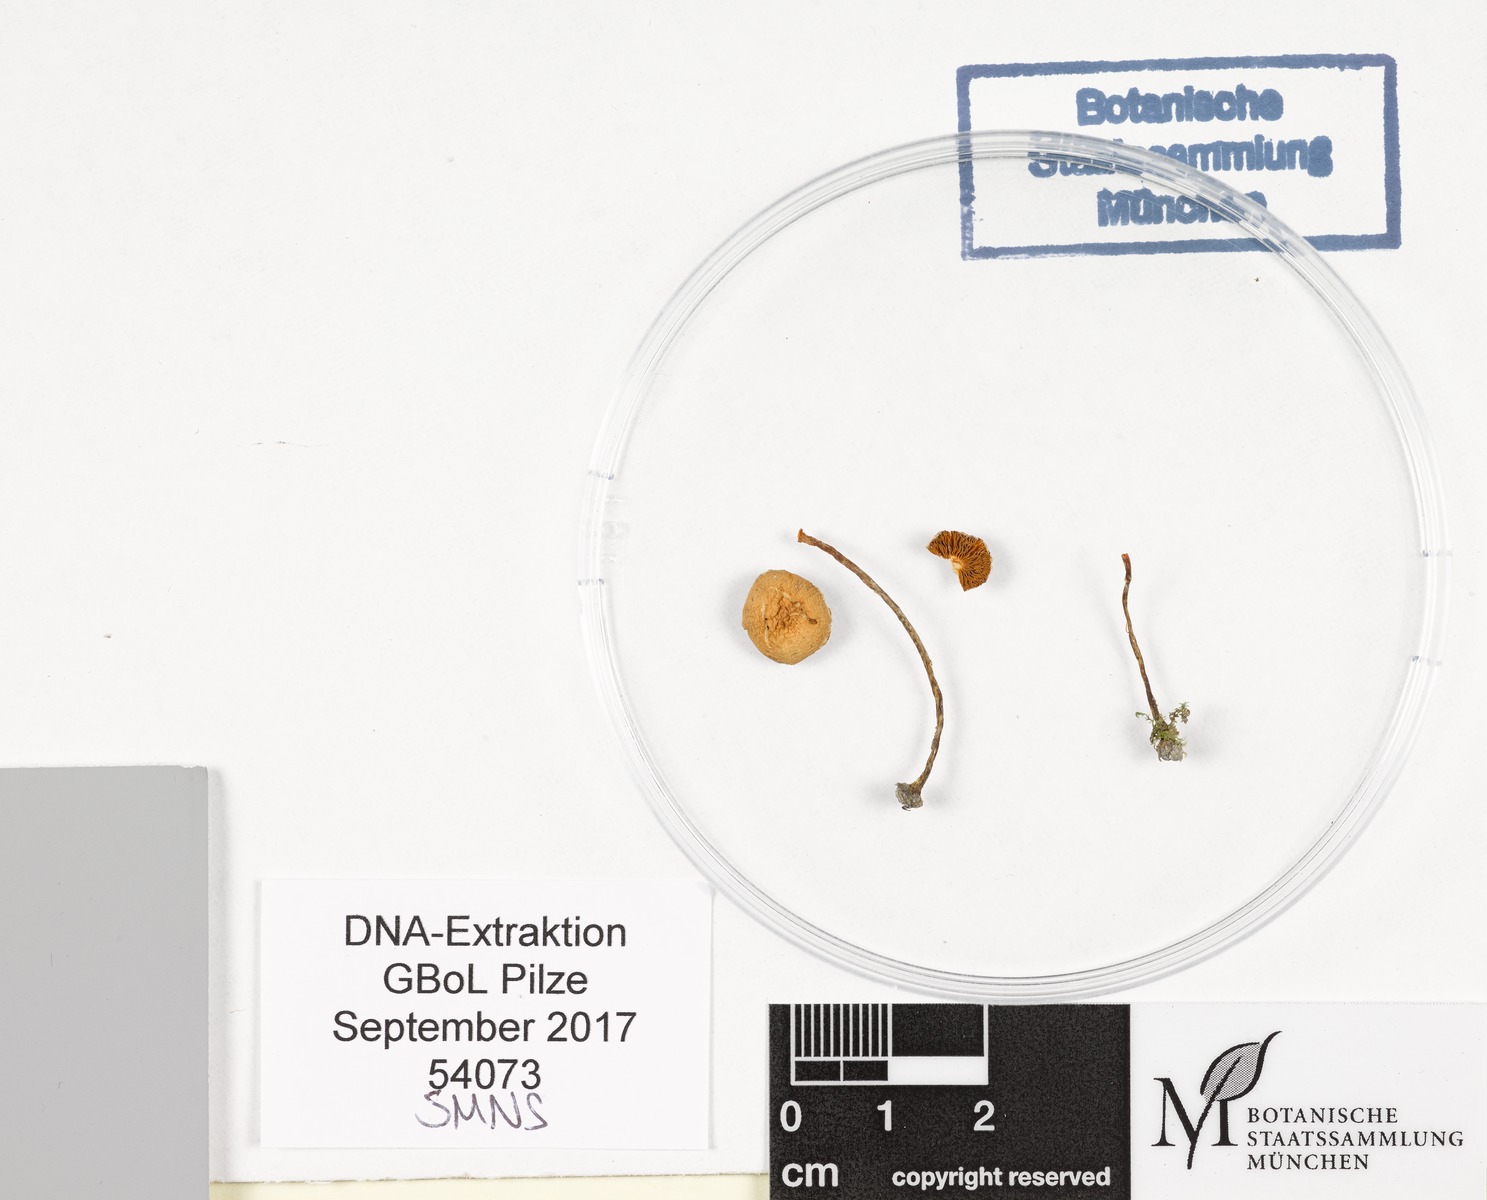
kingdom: Fungi
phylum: Basidiomycota
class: Agaricomycetes
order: Agaricales
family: Bolbitiaceae
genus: Conocybe
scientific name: Conocybe vestita
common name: Caped conecap
